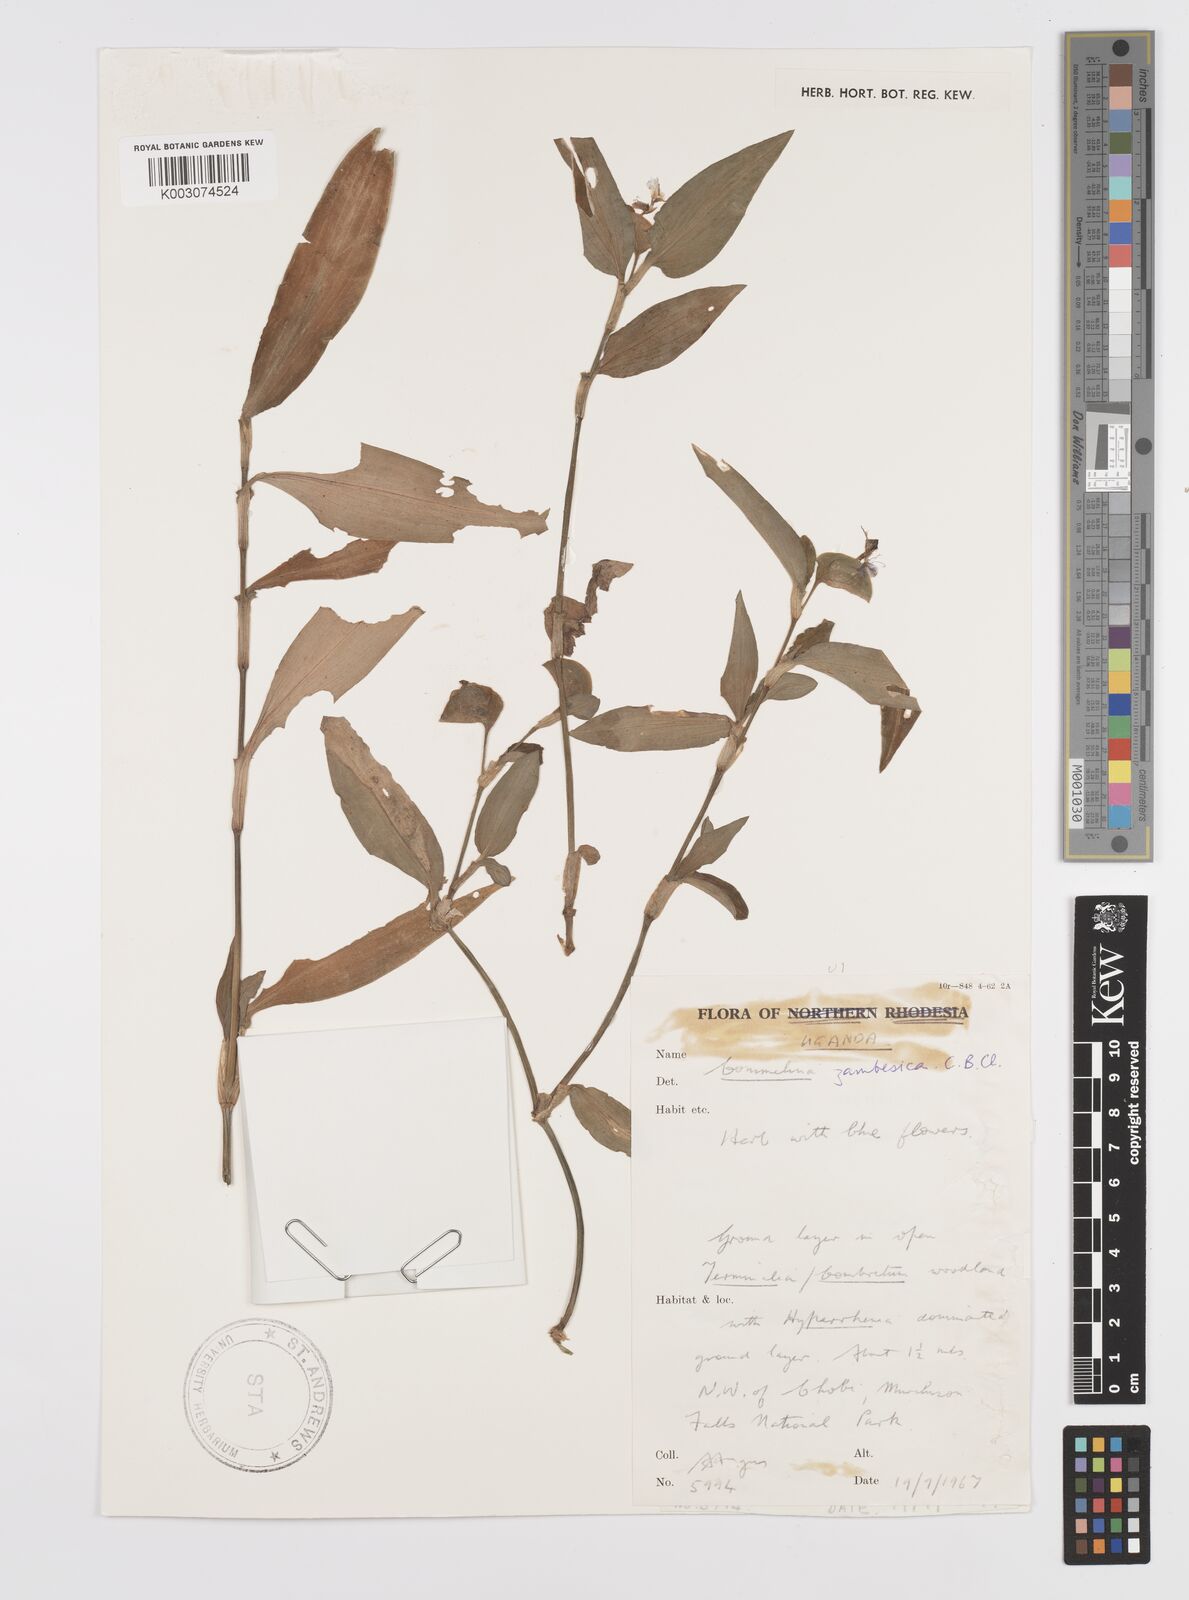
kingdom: Plantae
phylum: Tracheophyta
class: Liliopsida
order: Commelinales
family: Commelinaceae
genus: Commelina
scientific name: Commelina zambesica
